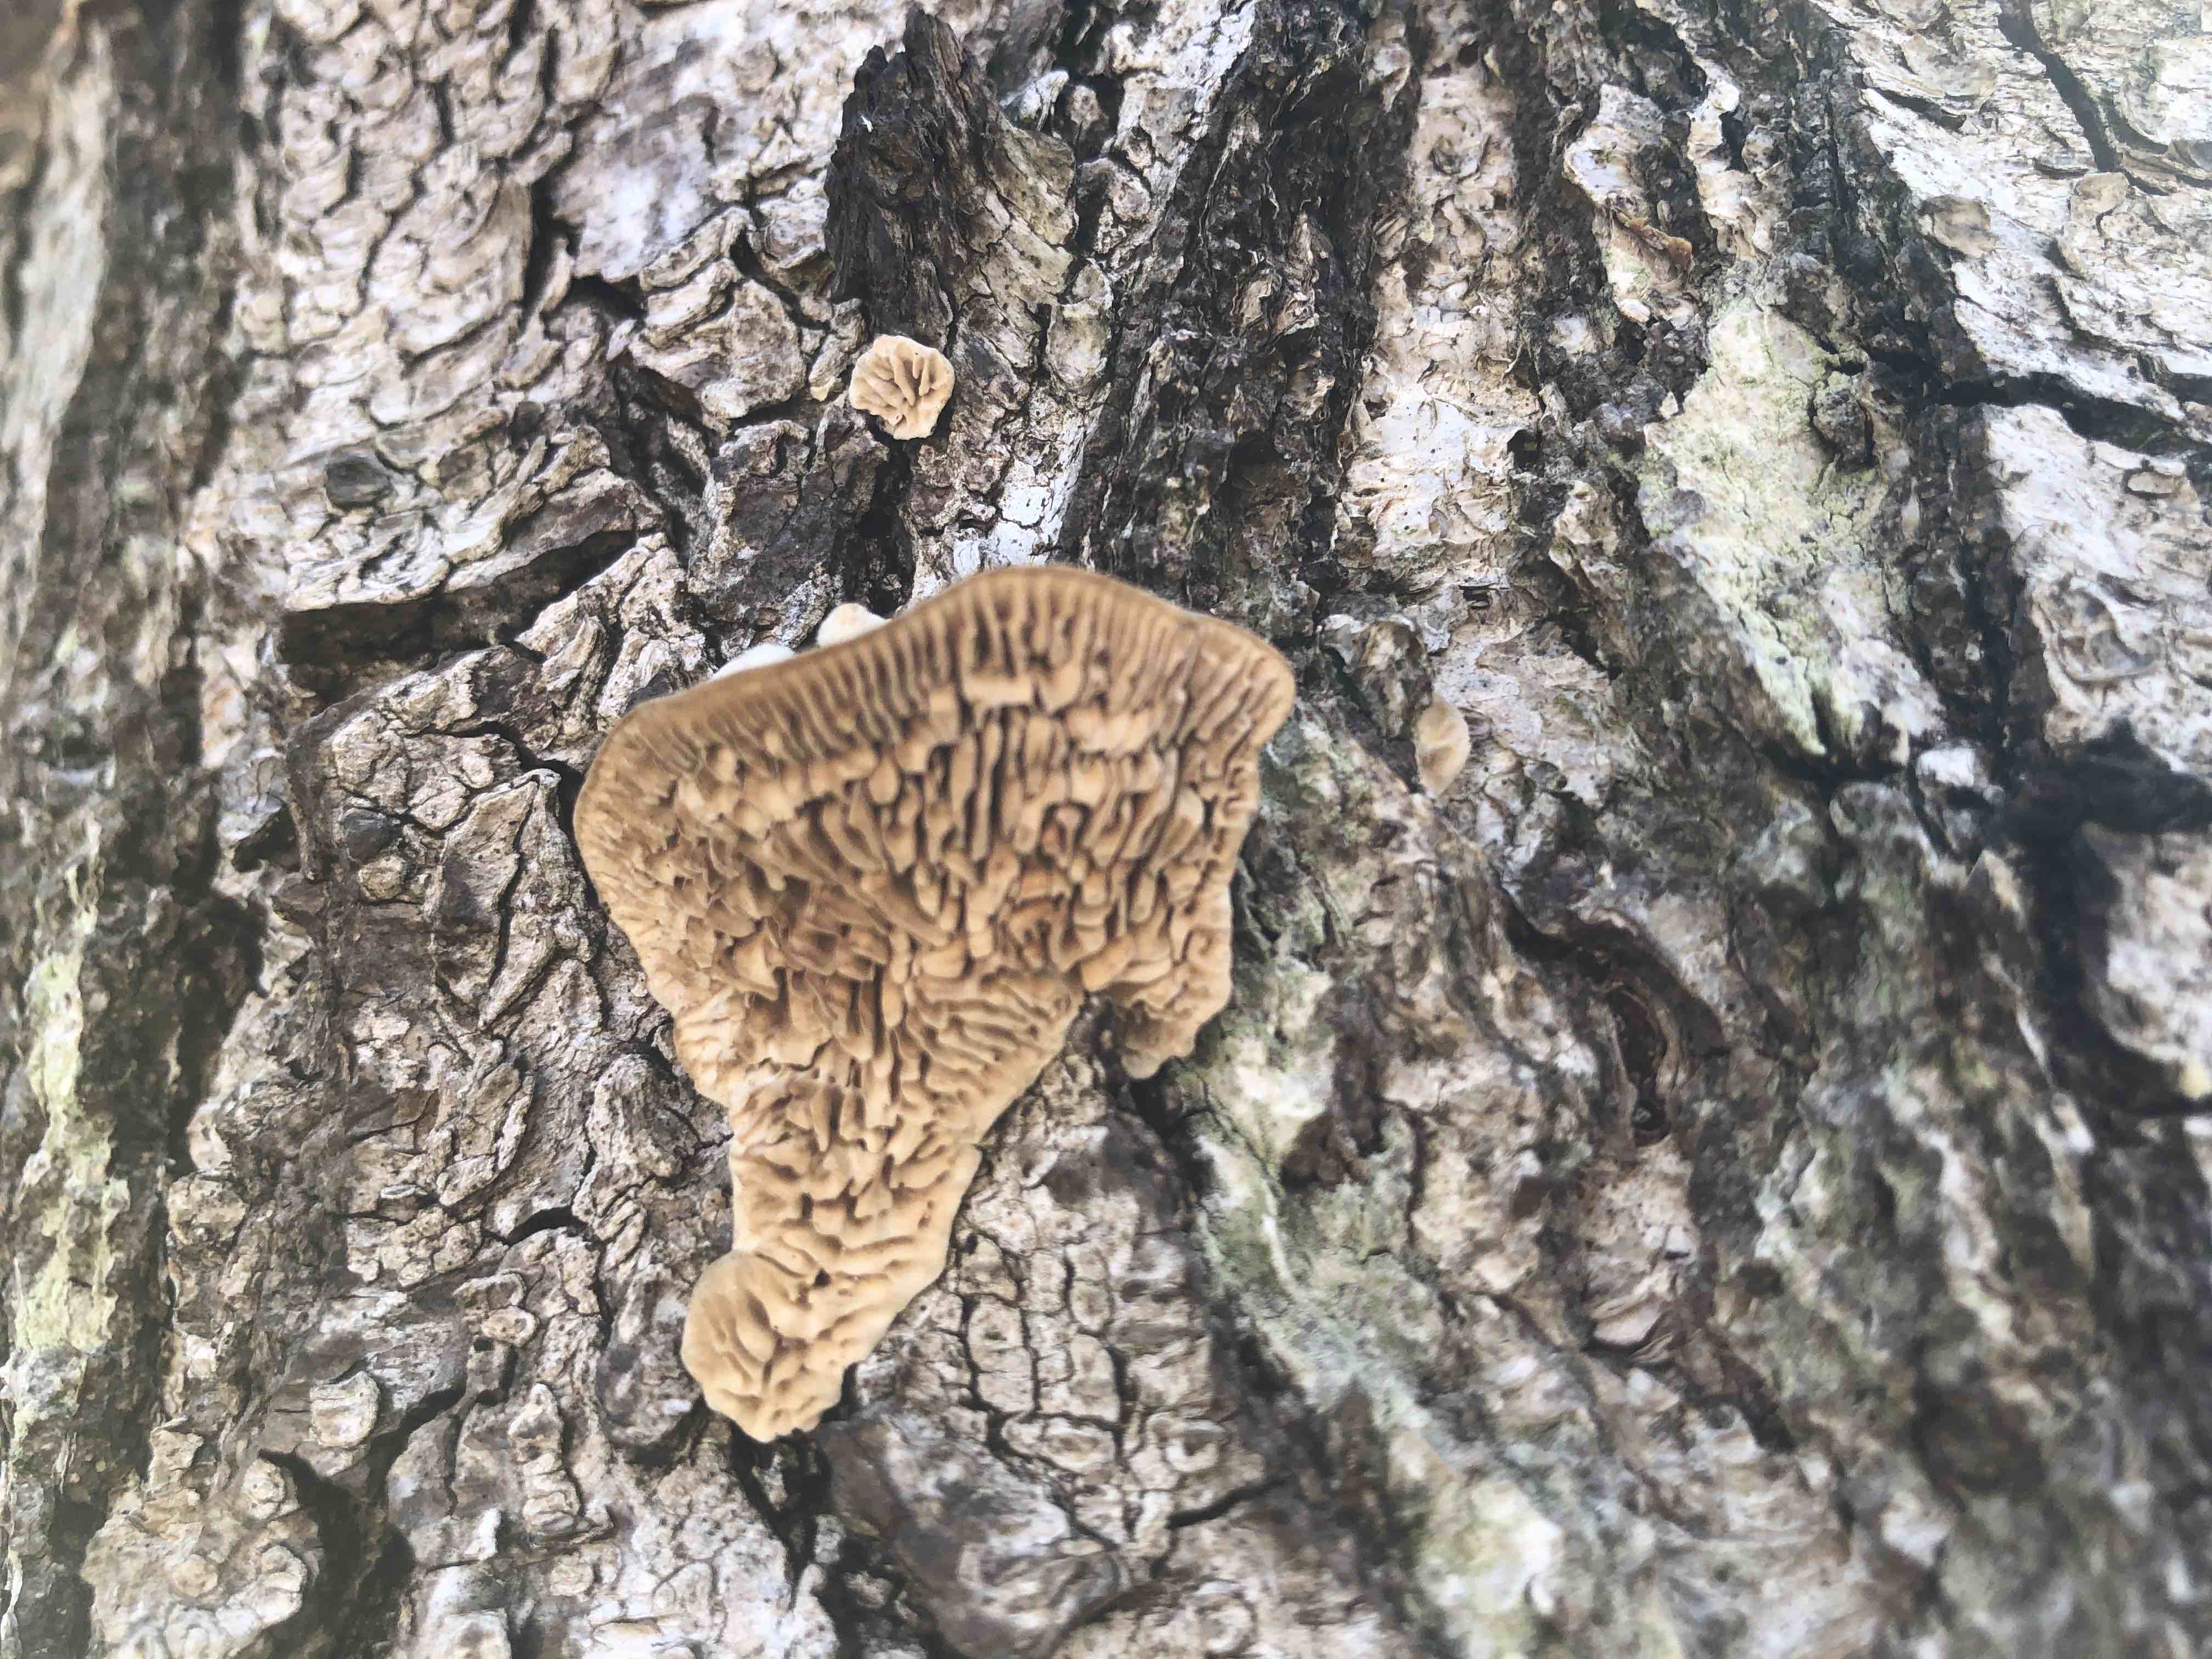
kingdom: Fungi
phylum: Basidiomycota
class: Agaricomycetes
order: Polyporales
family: Polyporaceae
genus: Lenzites
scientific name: Lenzites betulinus
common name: birke-læderporesvamp
